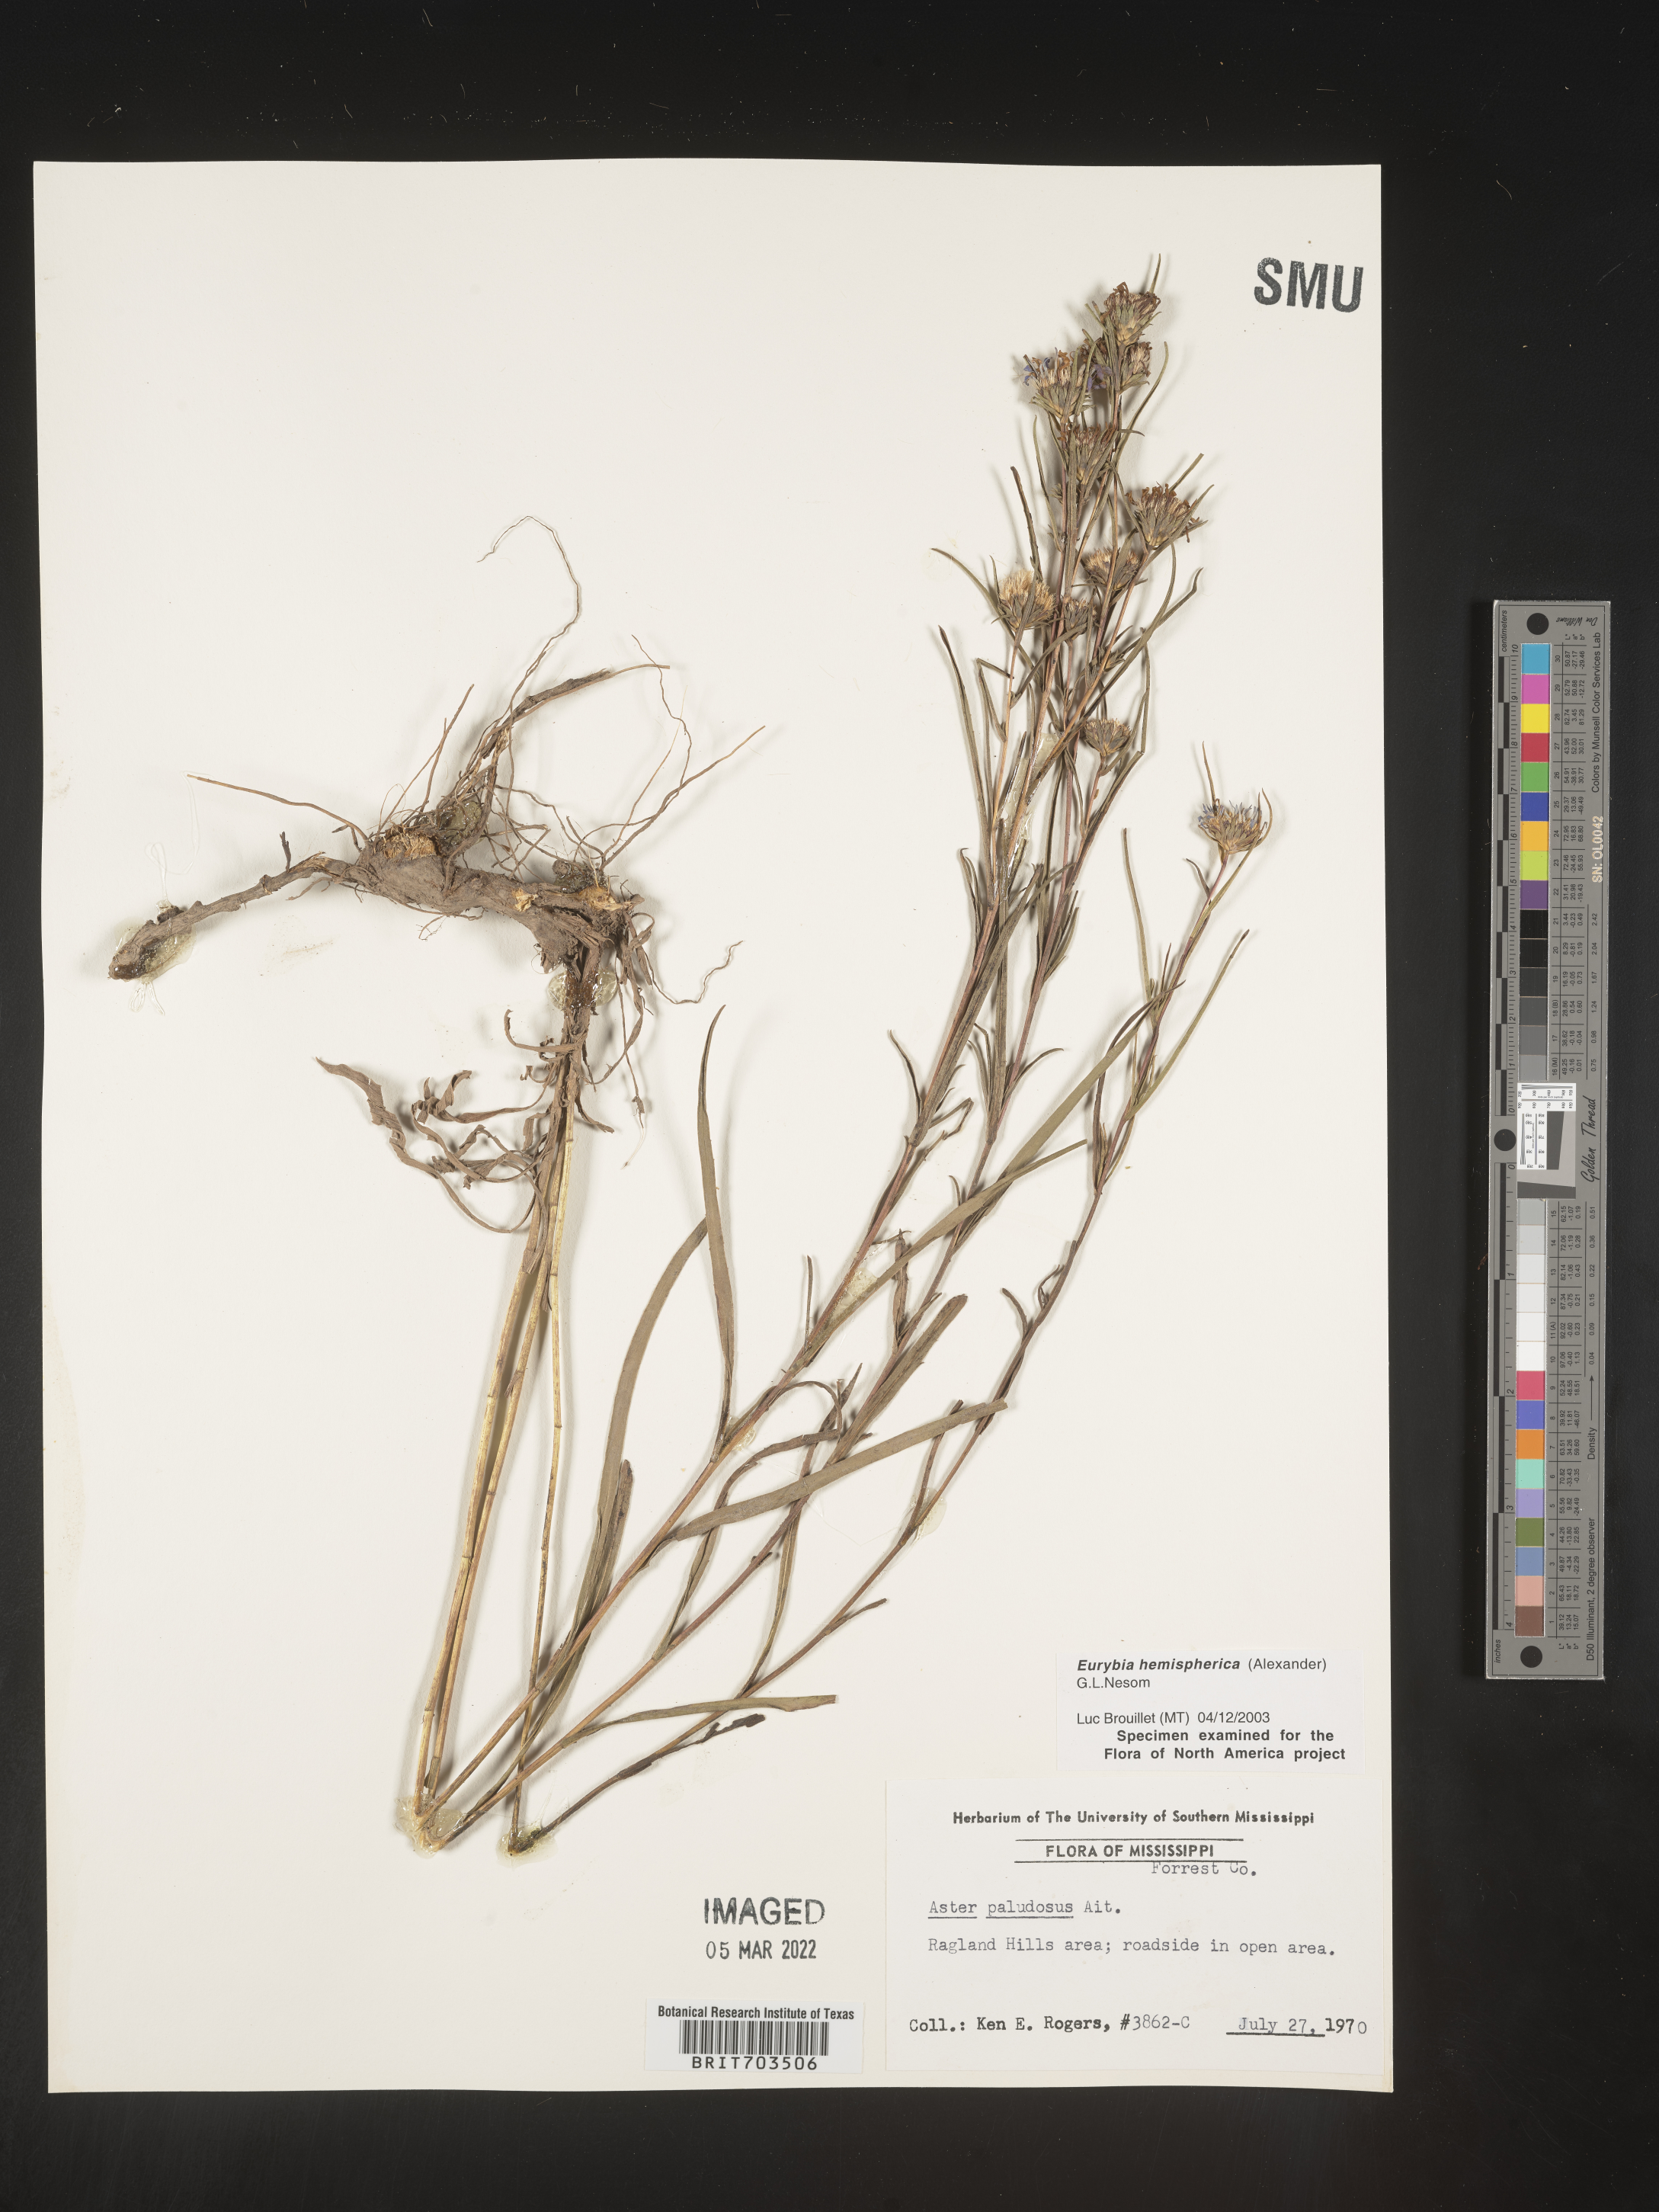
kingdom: Plantae
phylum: Tracheophyta
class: Magnoliopsida
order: Asterales
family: Asteraceae
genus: Eurybia
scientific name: Eurybia hemispherica
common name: Showy aster
